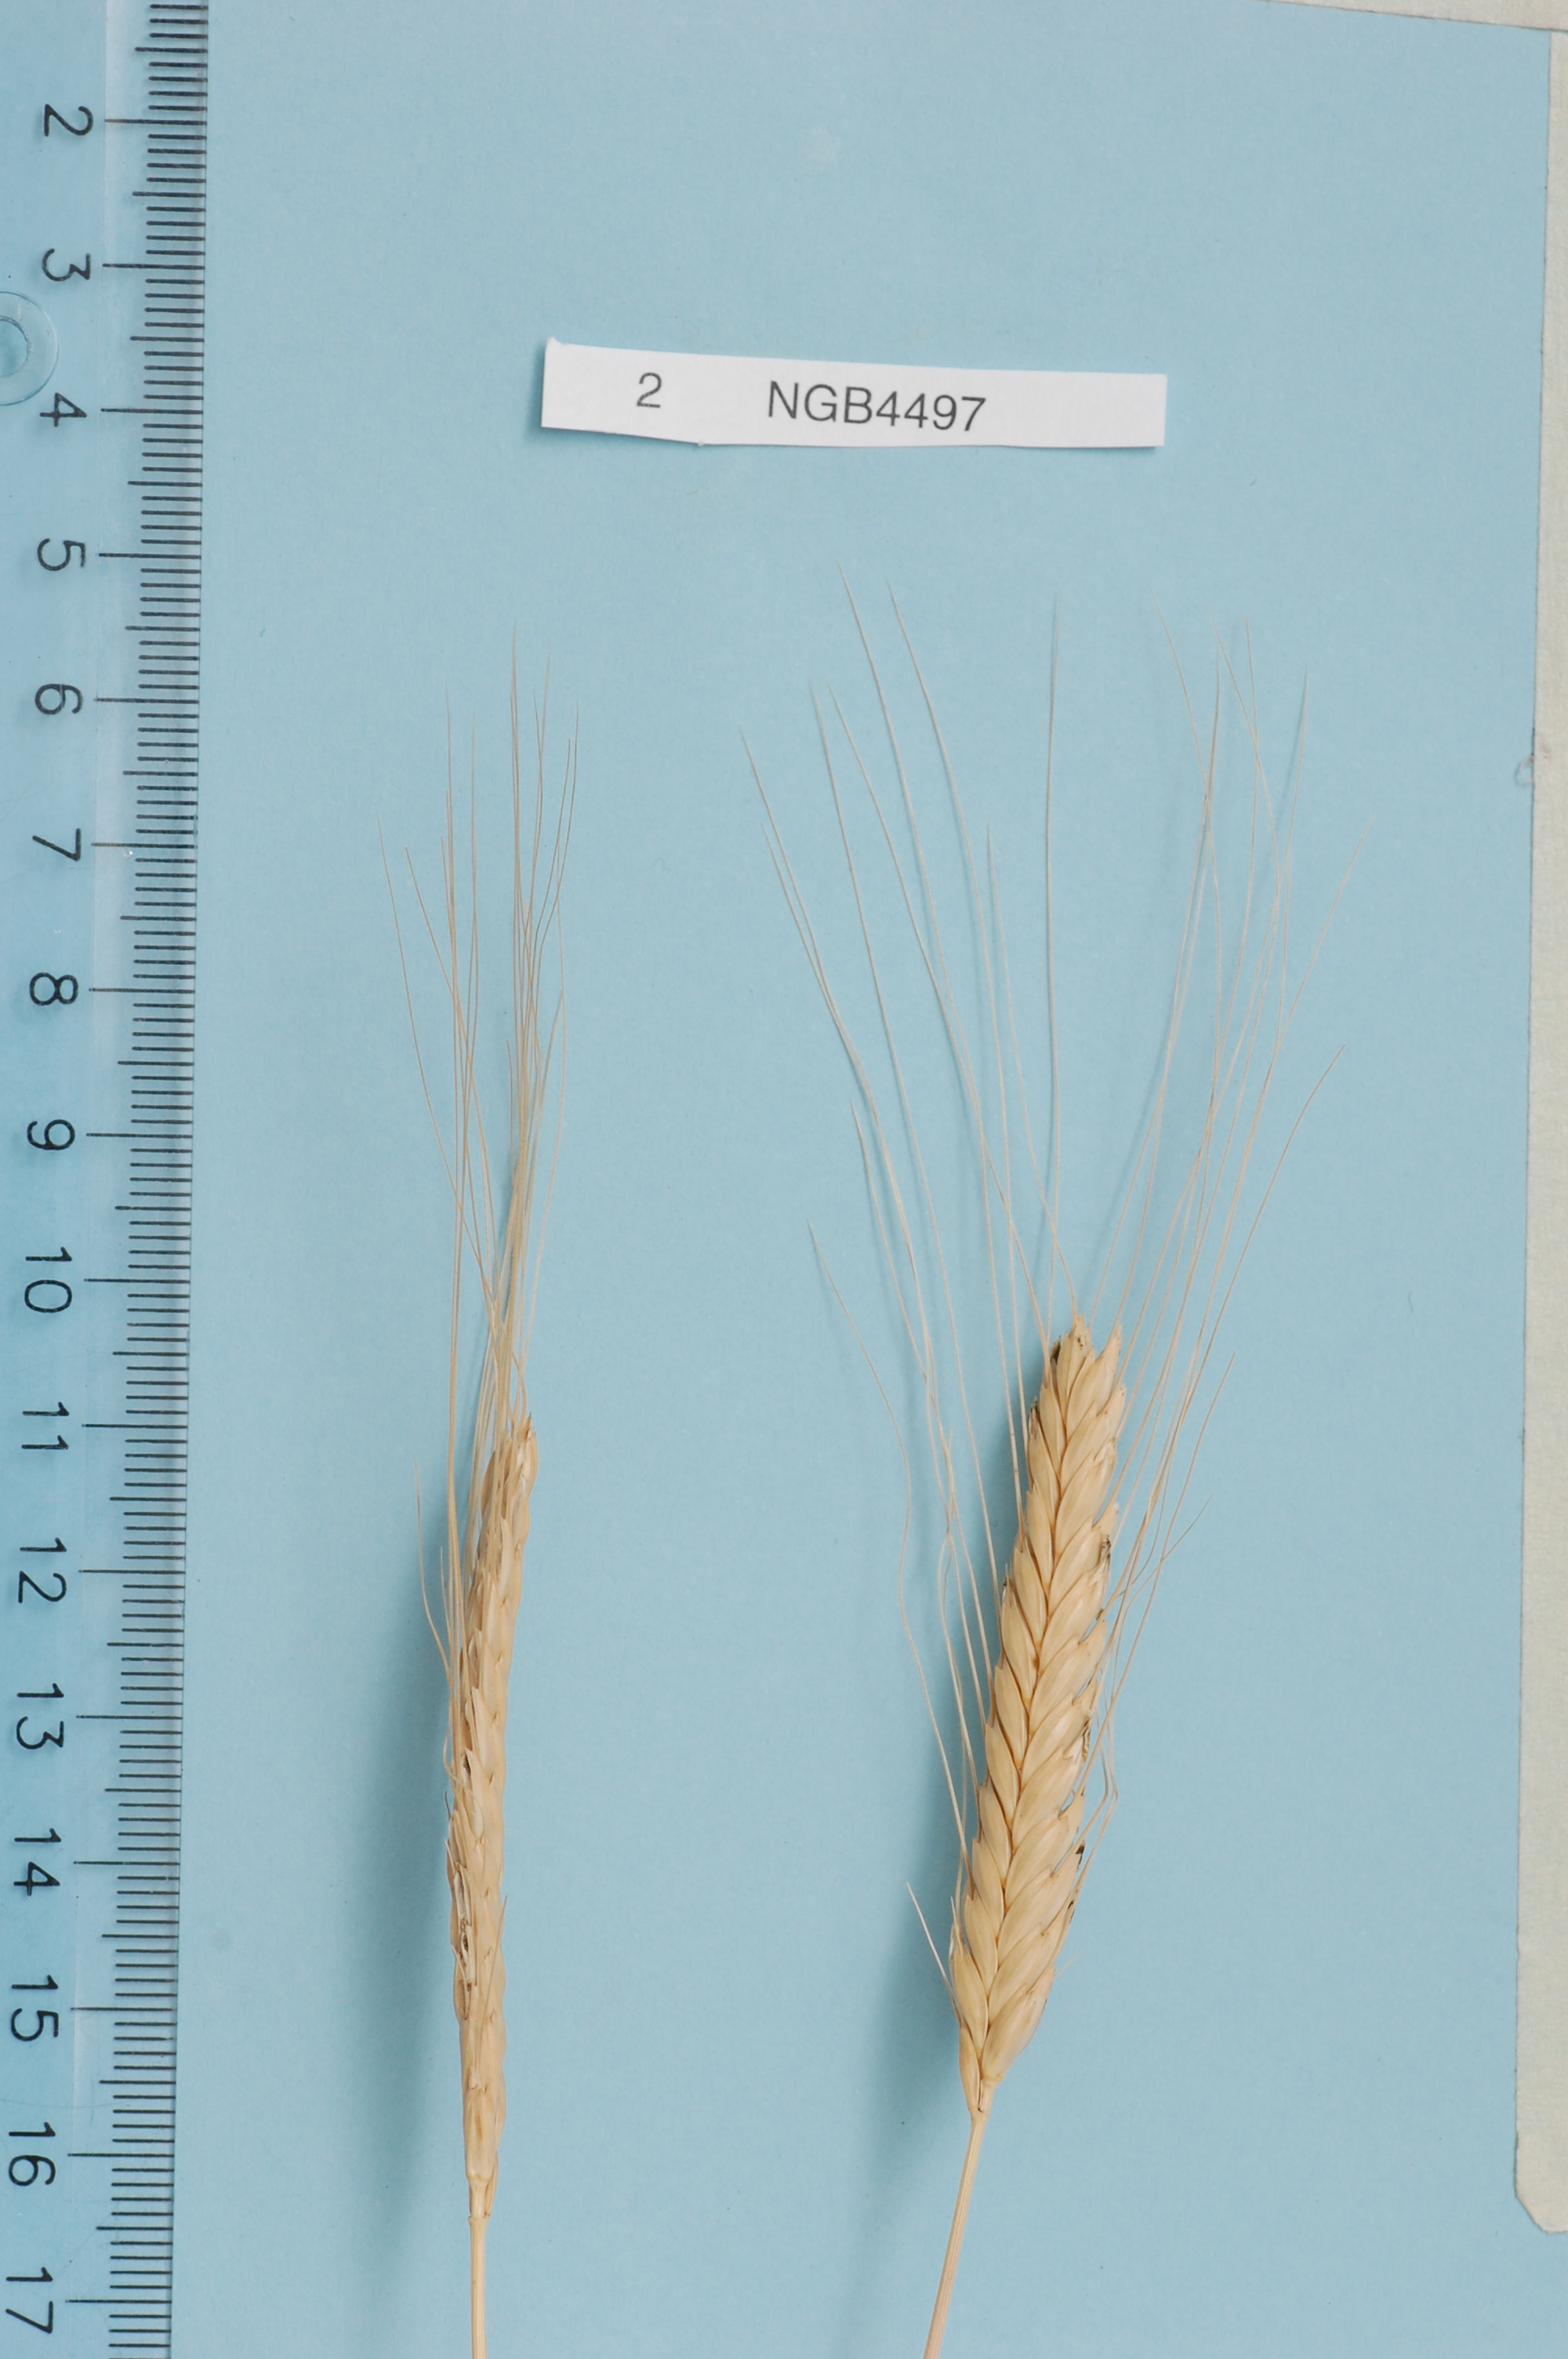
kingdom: Plantae
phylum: Tracheophyta
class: Liliopsida
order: Poales
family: Poaceae
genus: Triticum
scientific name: Triticum monococcum
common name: Einkorn
